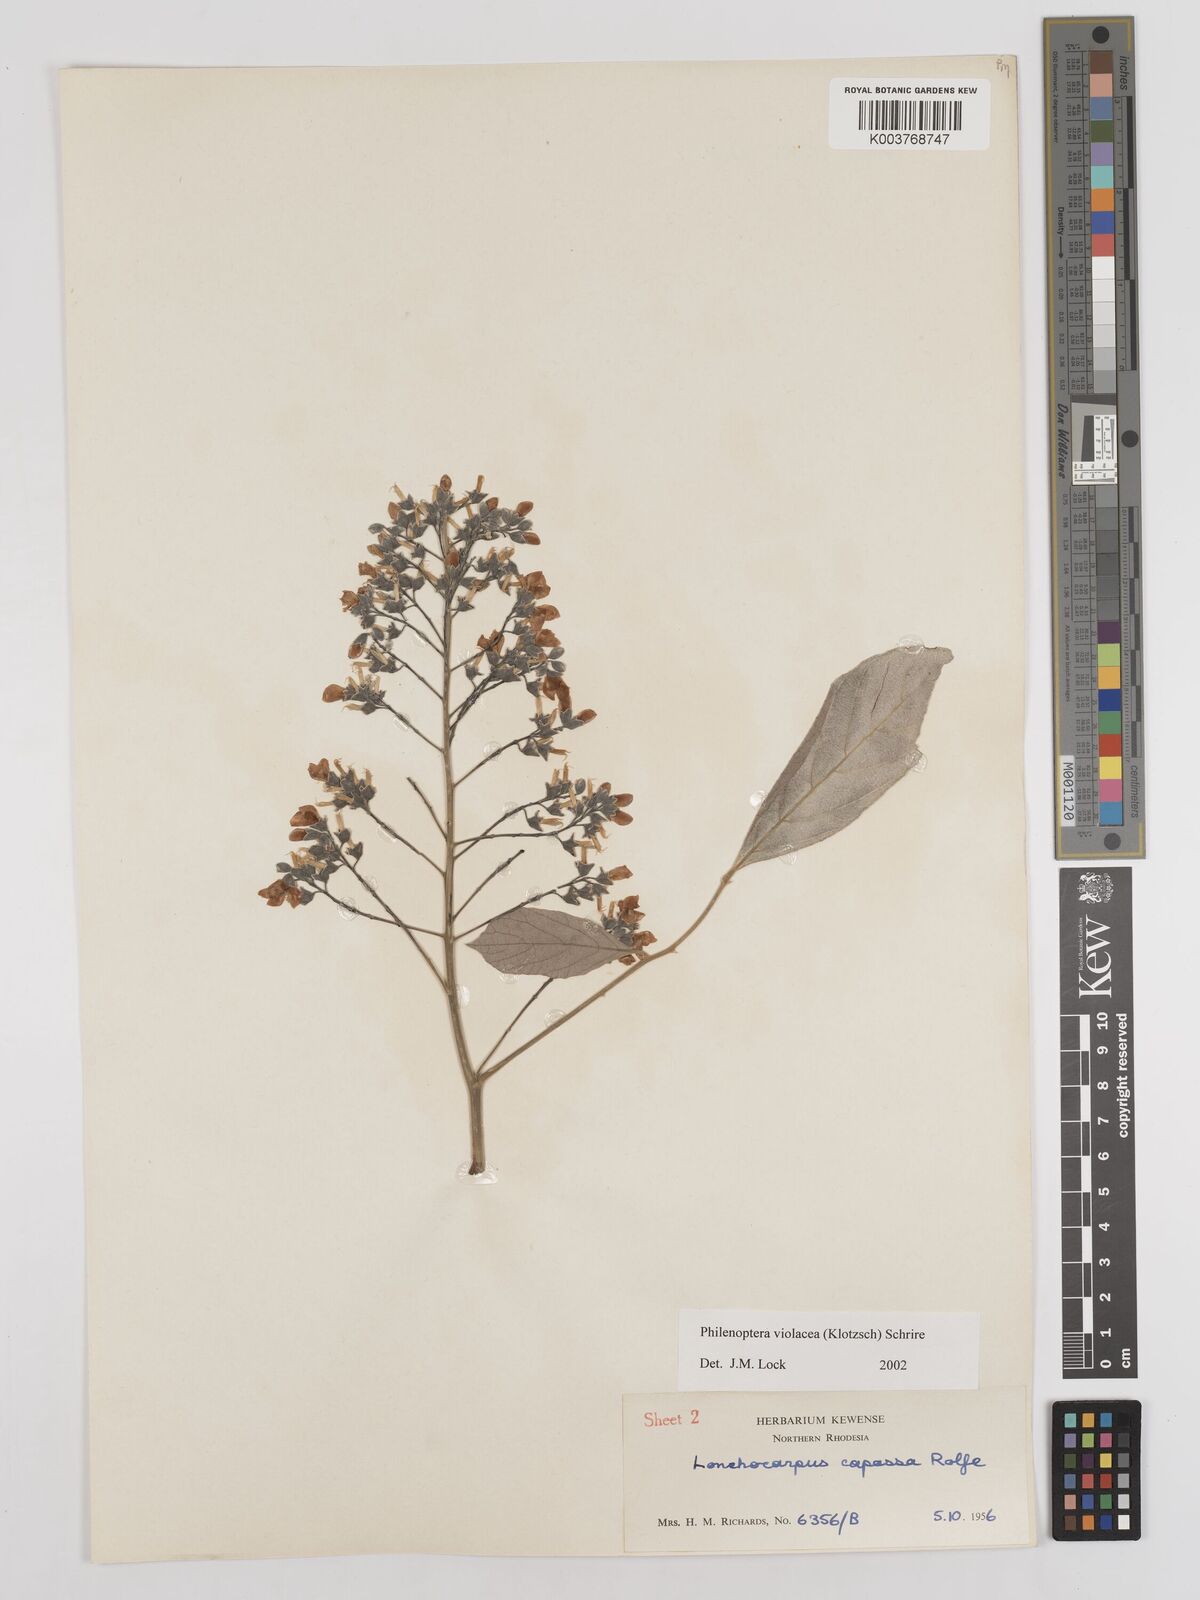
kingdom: Plantae
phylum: Tracheophyta
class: Magnoliopsida
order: Fabales
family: Fabaceae
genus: Philenoptera
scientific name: Philenoptera violacea
